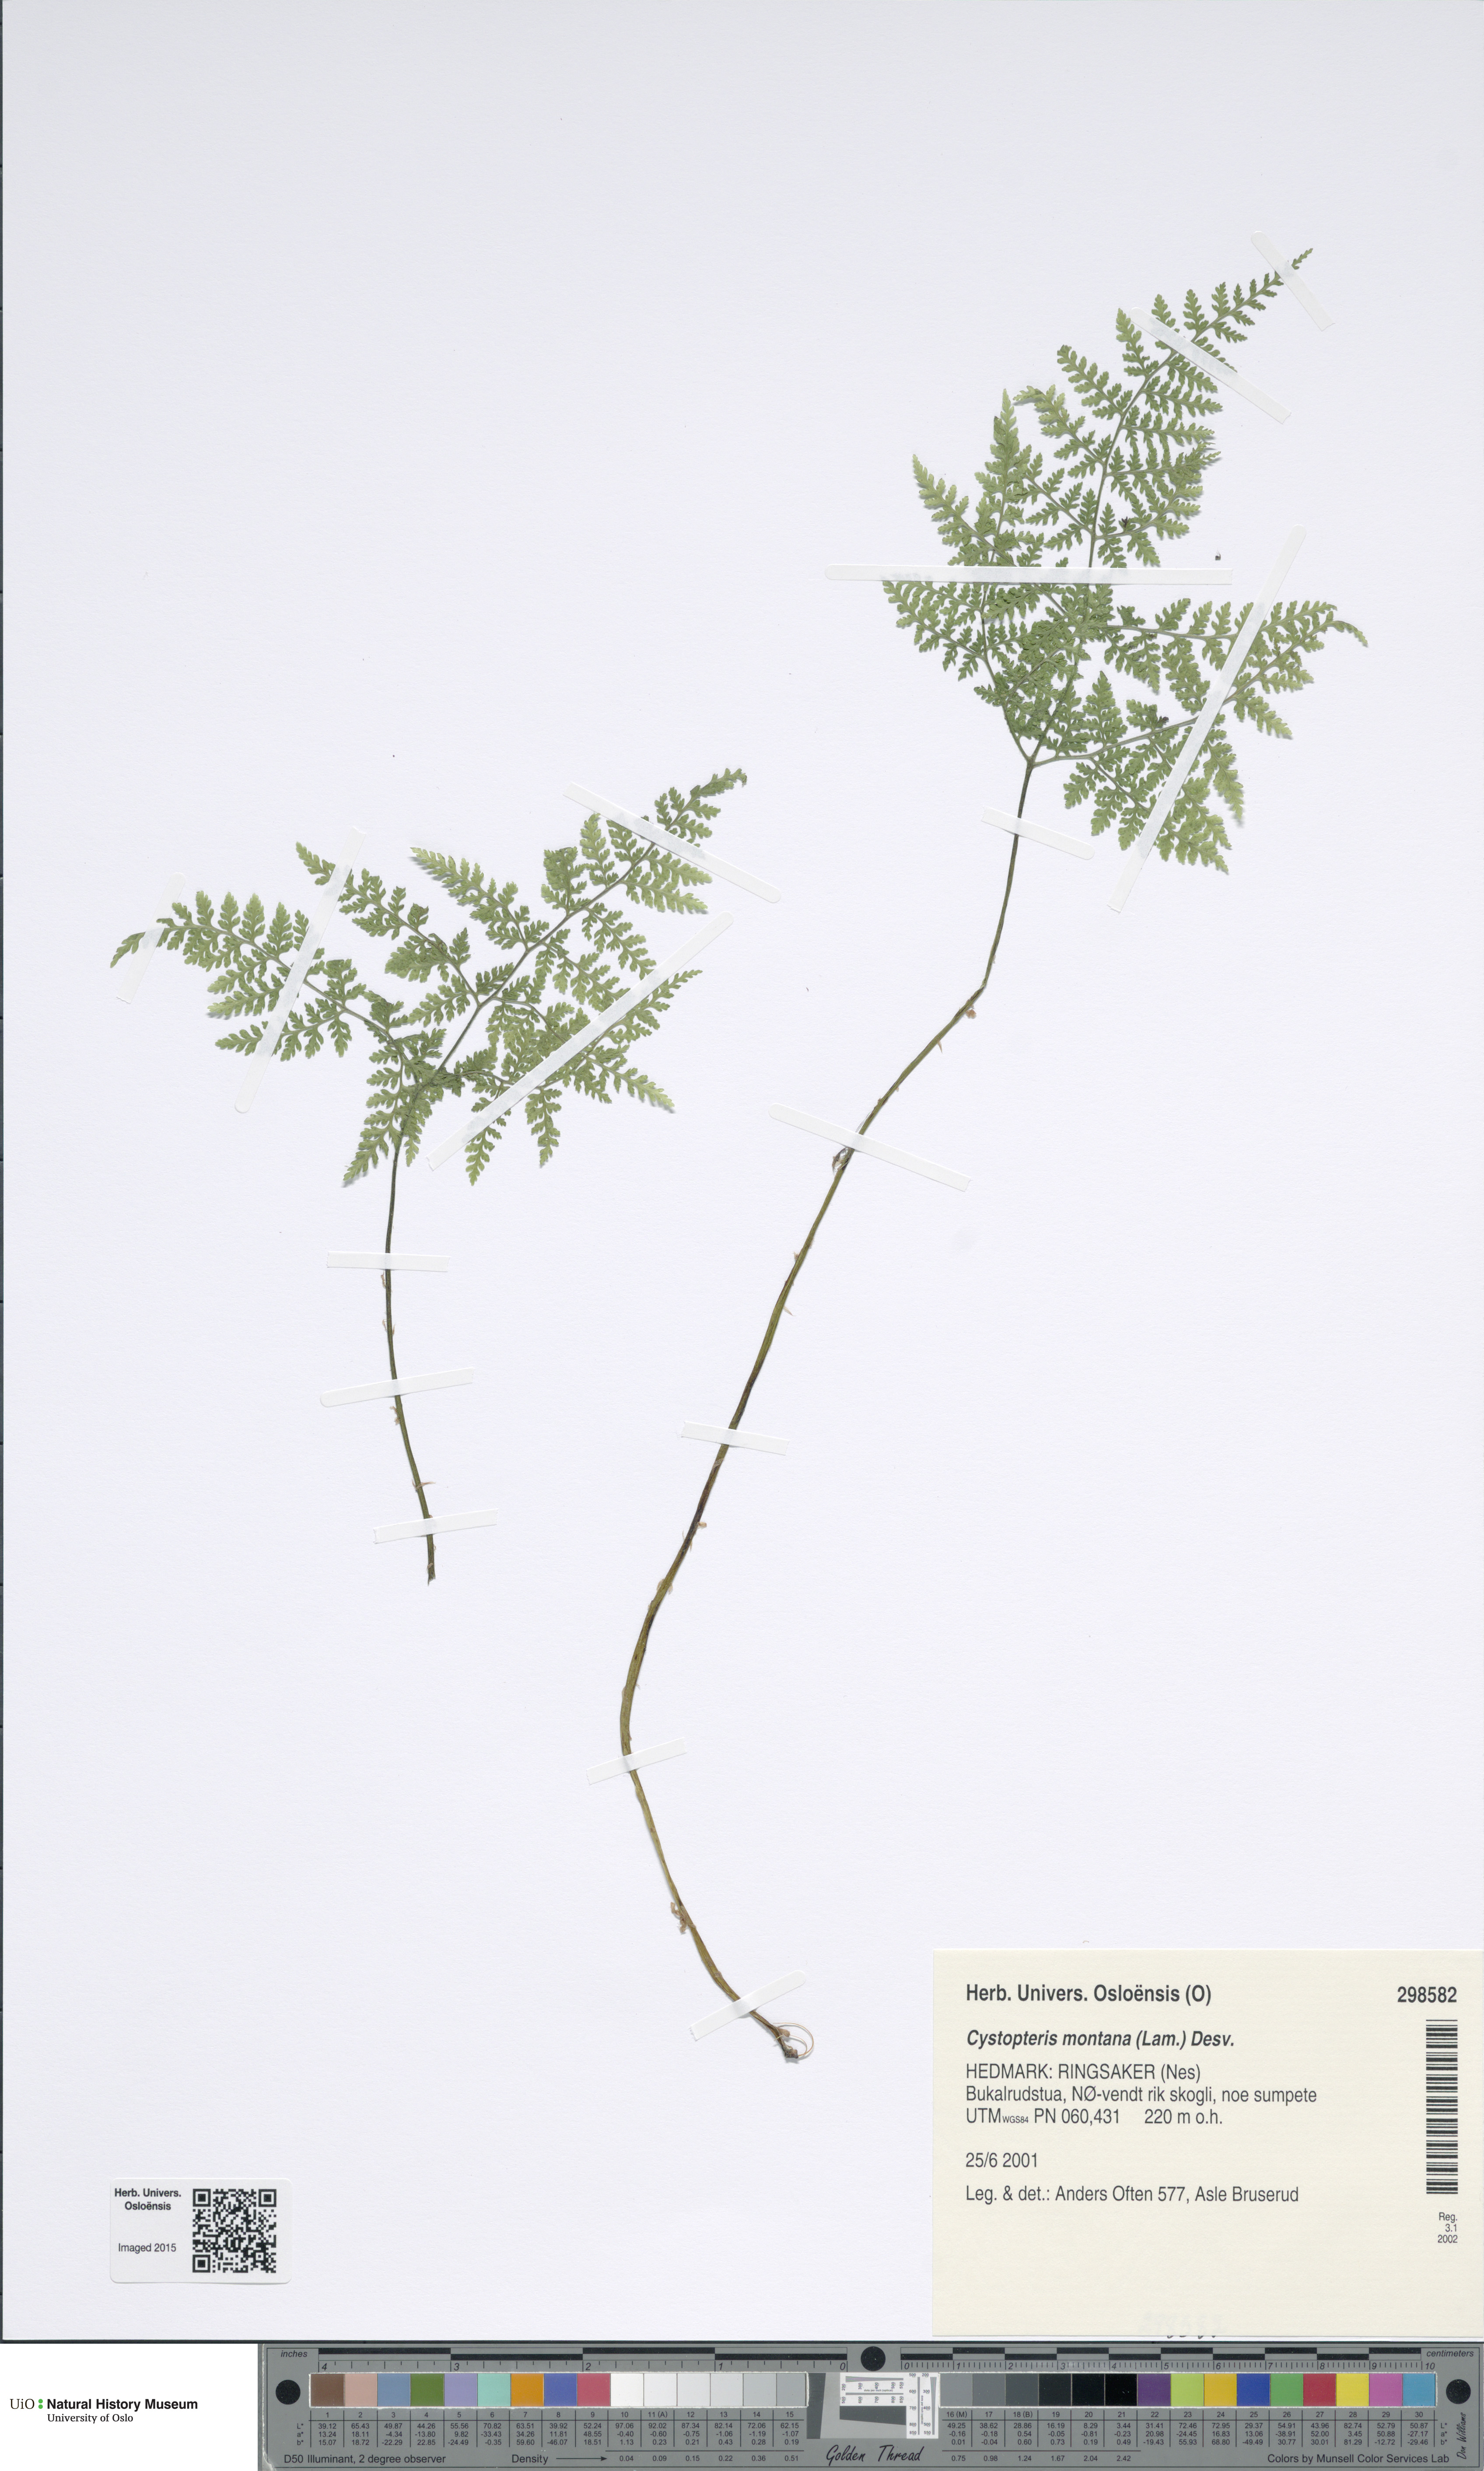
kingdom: Plantae
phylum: Tracheophyta
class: Polypodiopsida
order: Polypodiales
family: Cystopteridaceae
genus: Cystopteris
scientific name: Cystopteris montana
